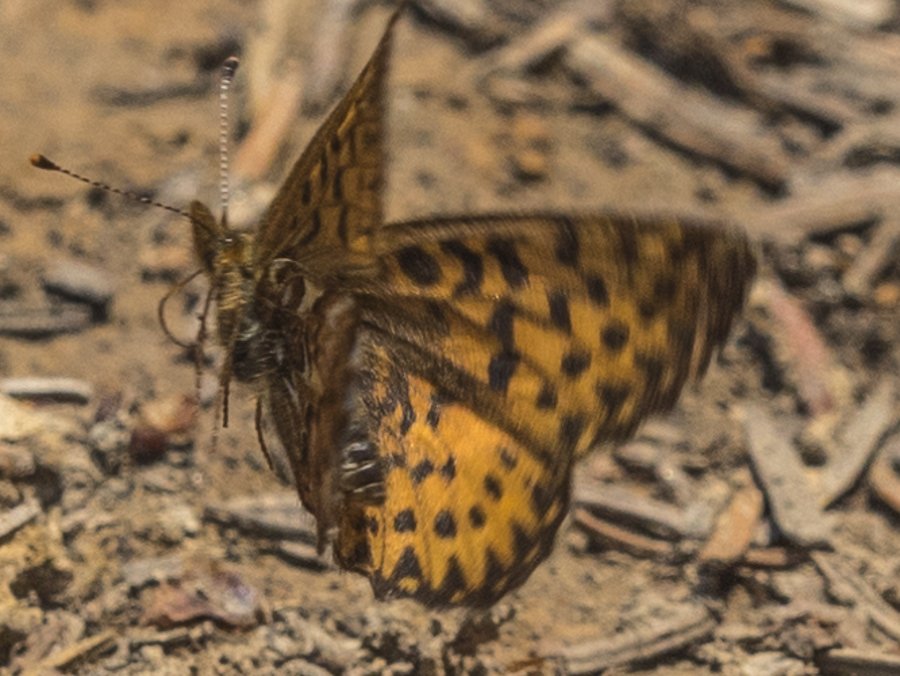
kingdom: Animalia
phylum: Arthropoda
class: Insecta
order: Lepidoptera
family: Nymphalidae
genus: Boloria
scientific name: Boloria freija
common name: Freija Fritillary
